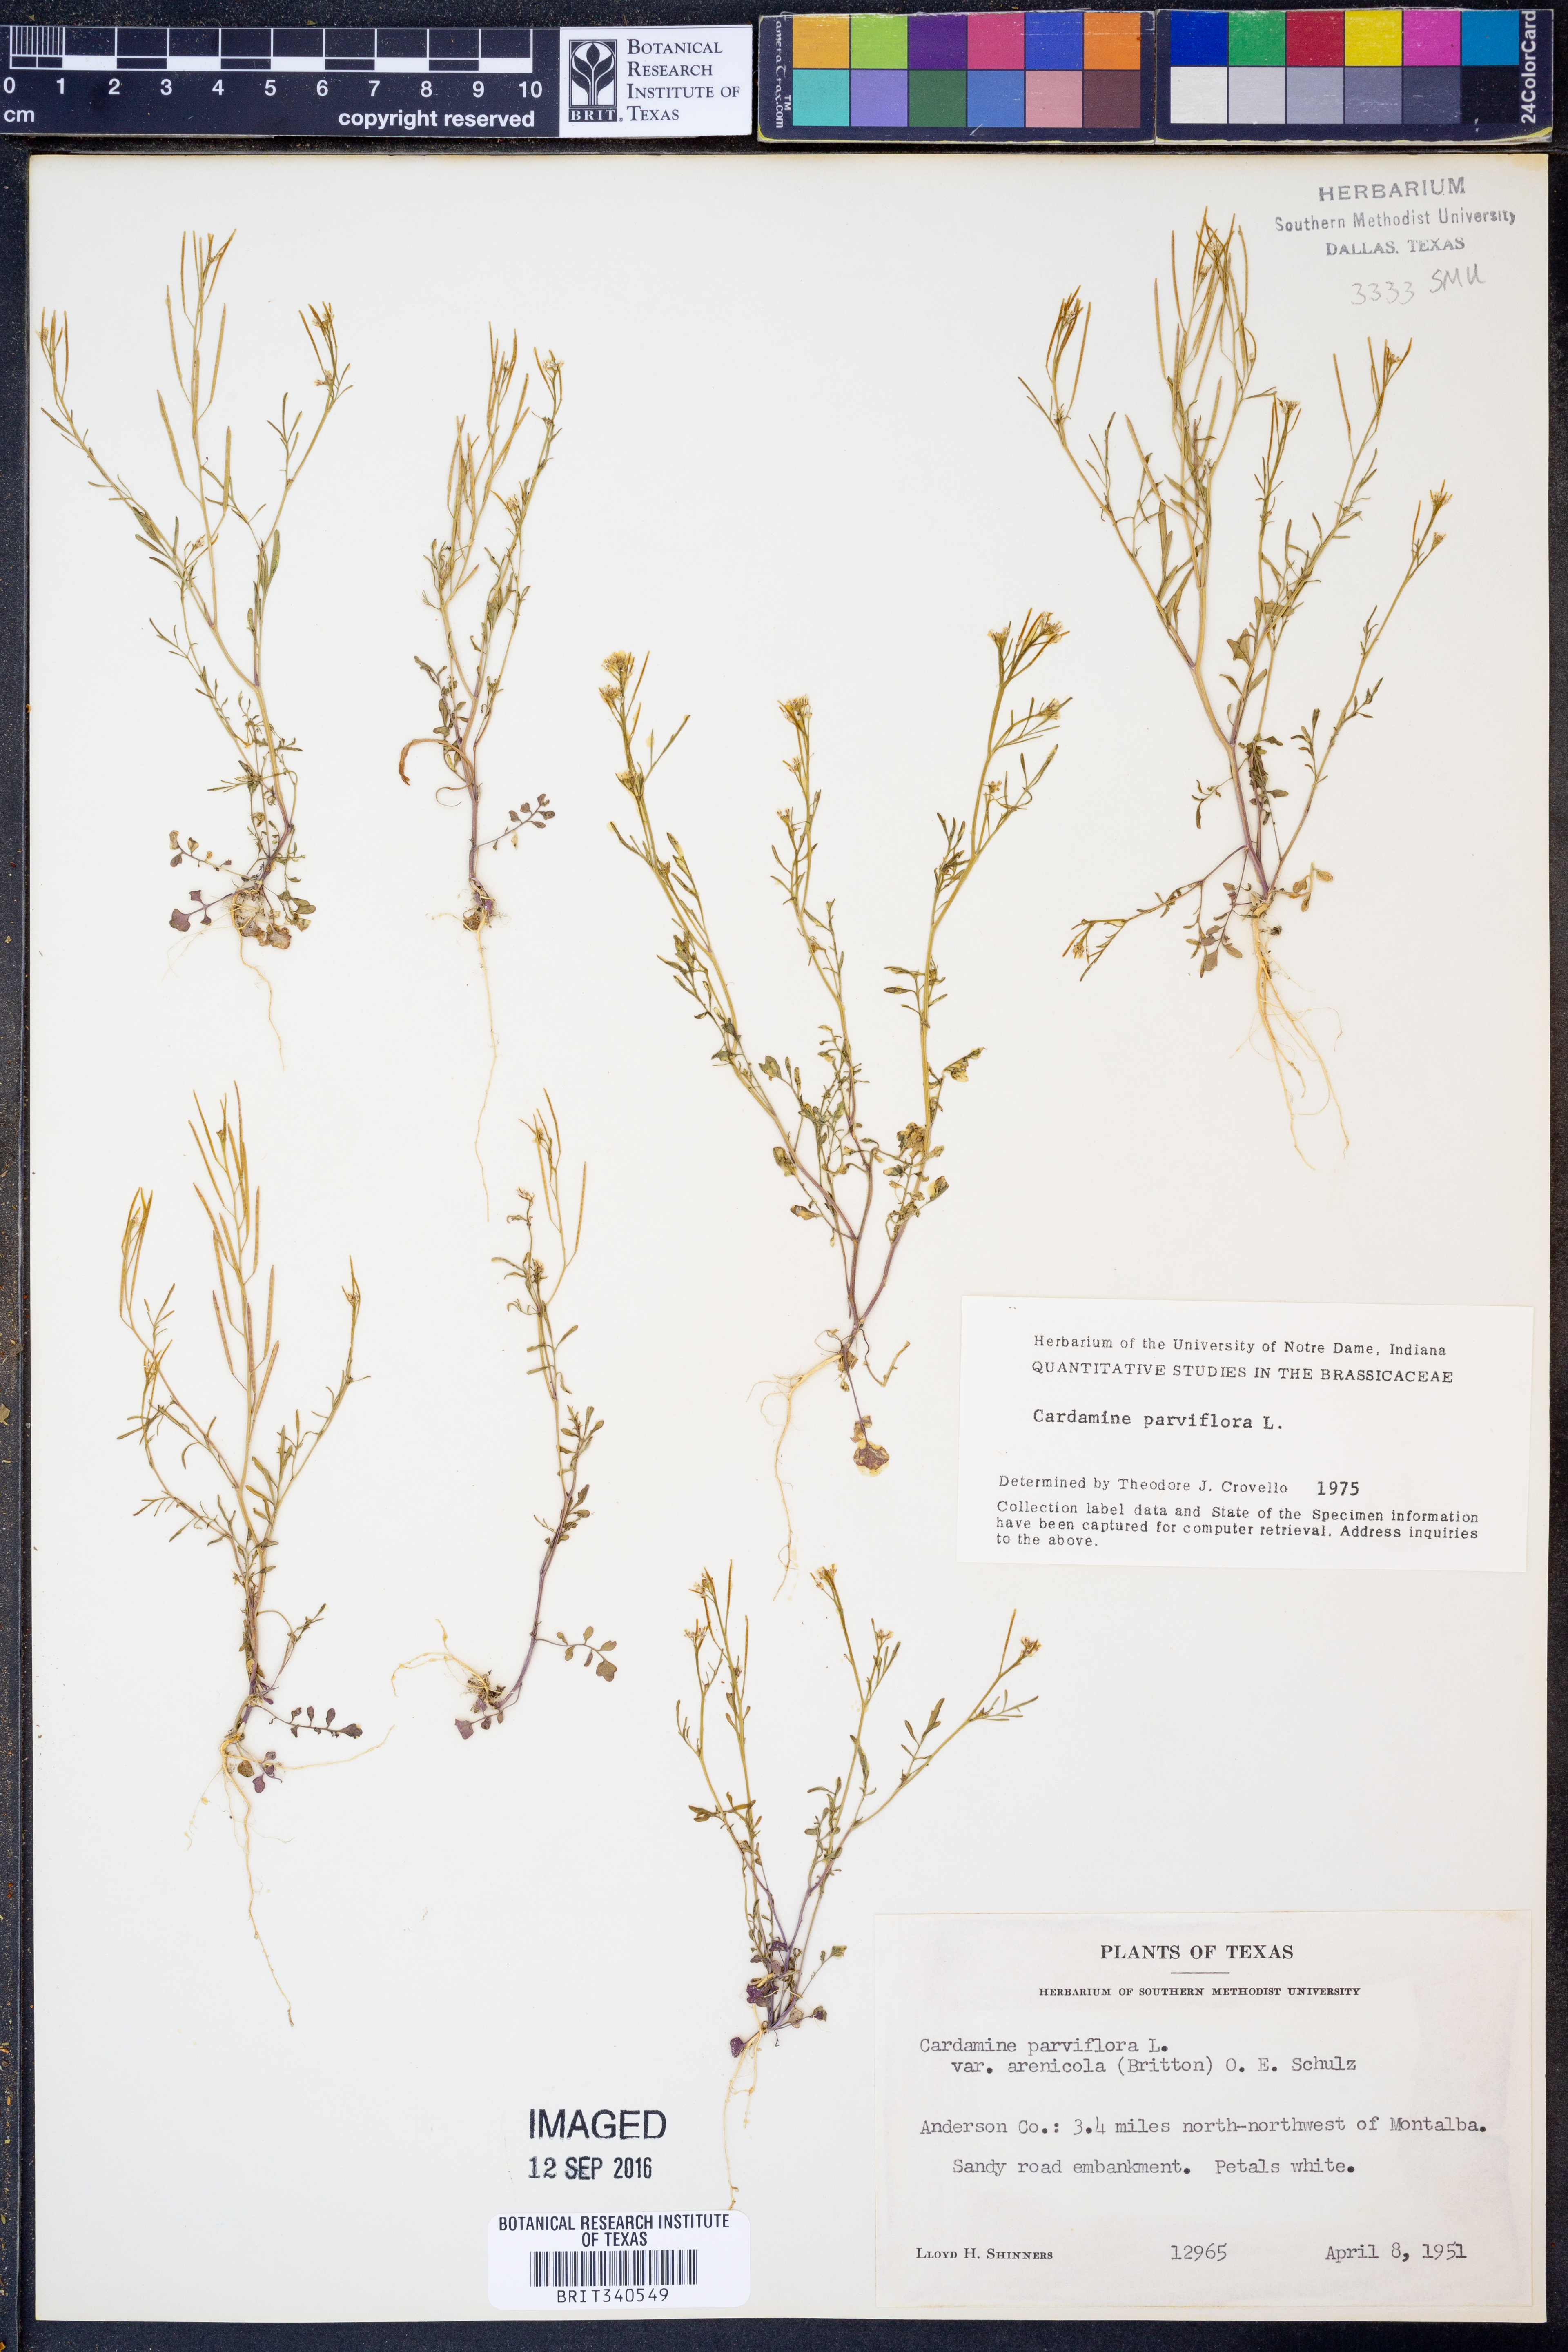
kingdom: Plantae
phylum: Tracheophyta
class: Magnoliopsida
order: Brassicales
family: Brassicaceae
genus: Cardamine
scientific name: Cardamine parviflora
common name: Sand bittercress
